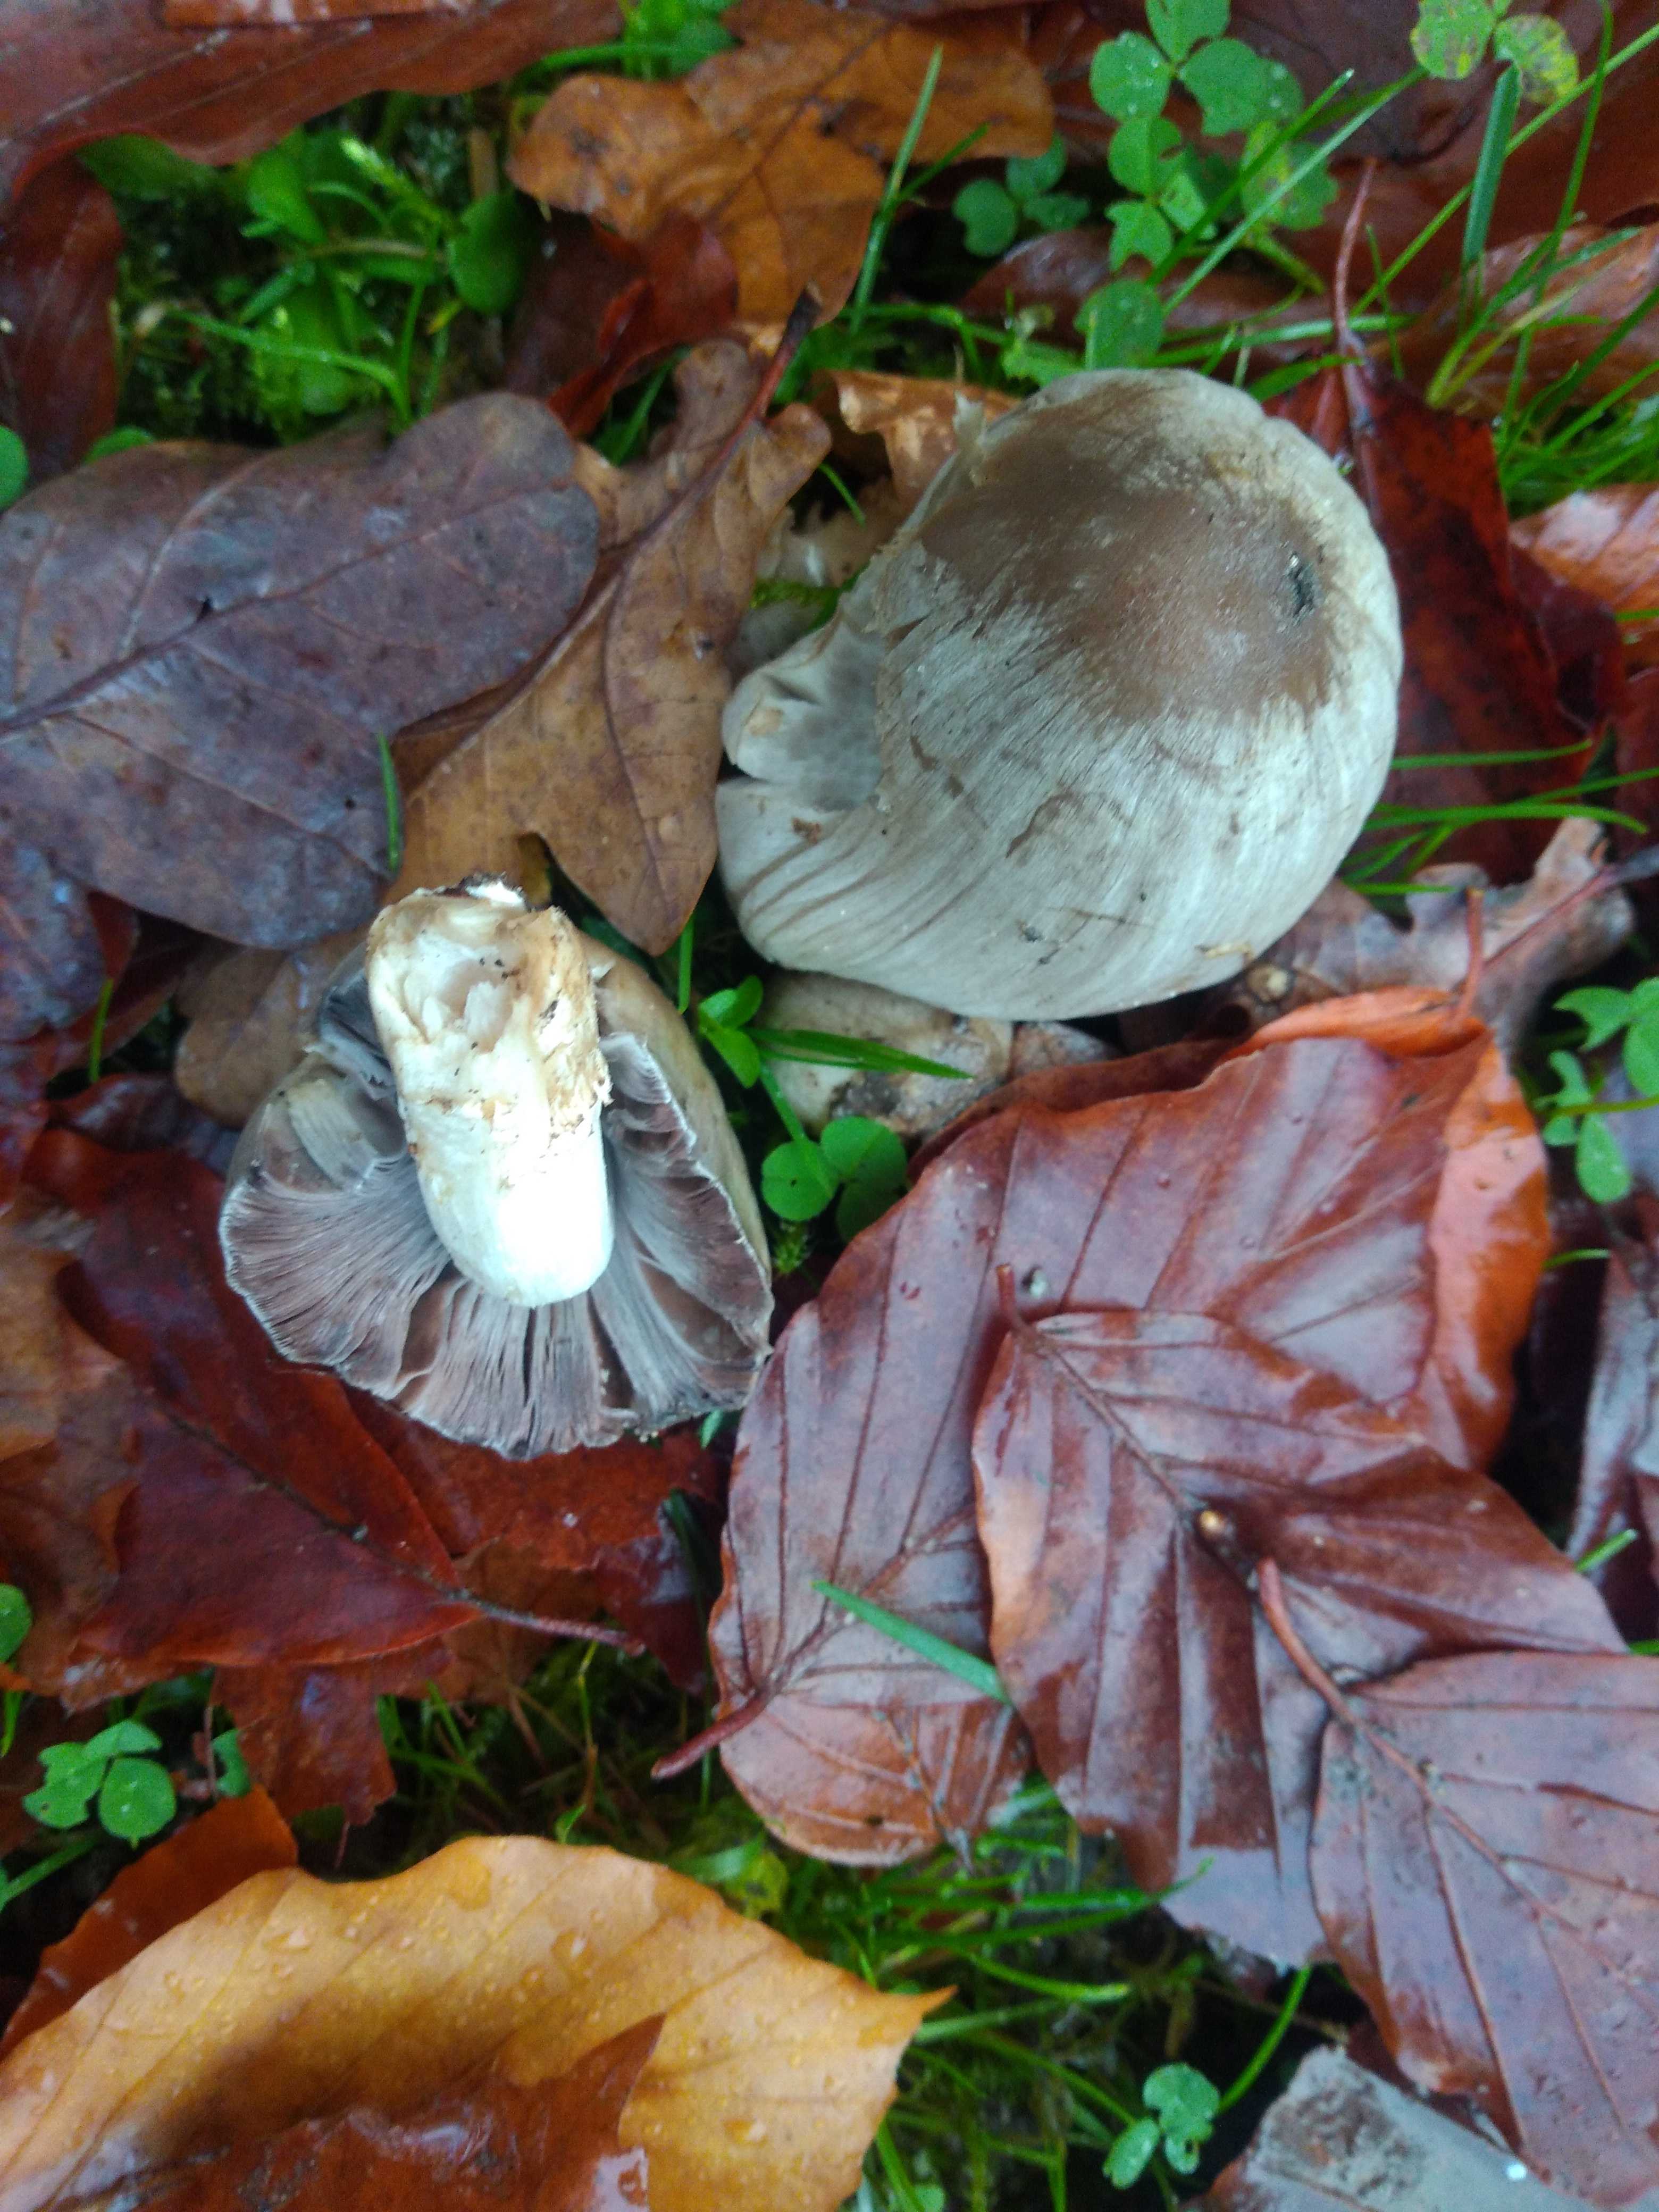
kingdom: Fungi
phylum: Basidiomycota
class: Agaricomycetes
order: Agaricales
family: Psathyrellaceae
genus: Coprinopsis
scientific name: Coprinopsis atramentaria
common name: almindelig blækhat
